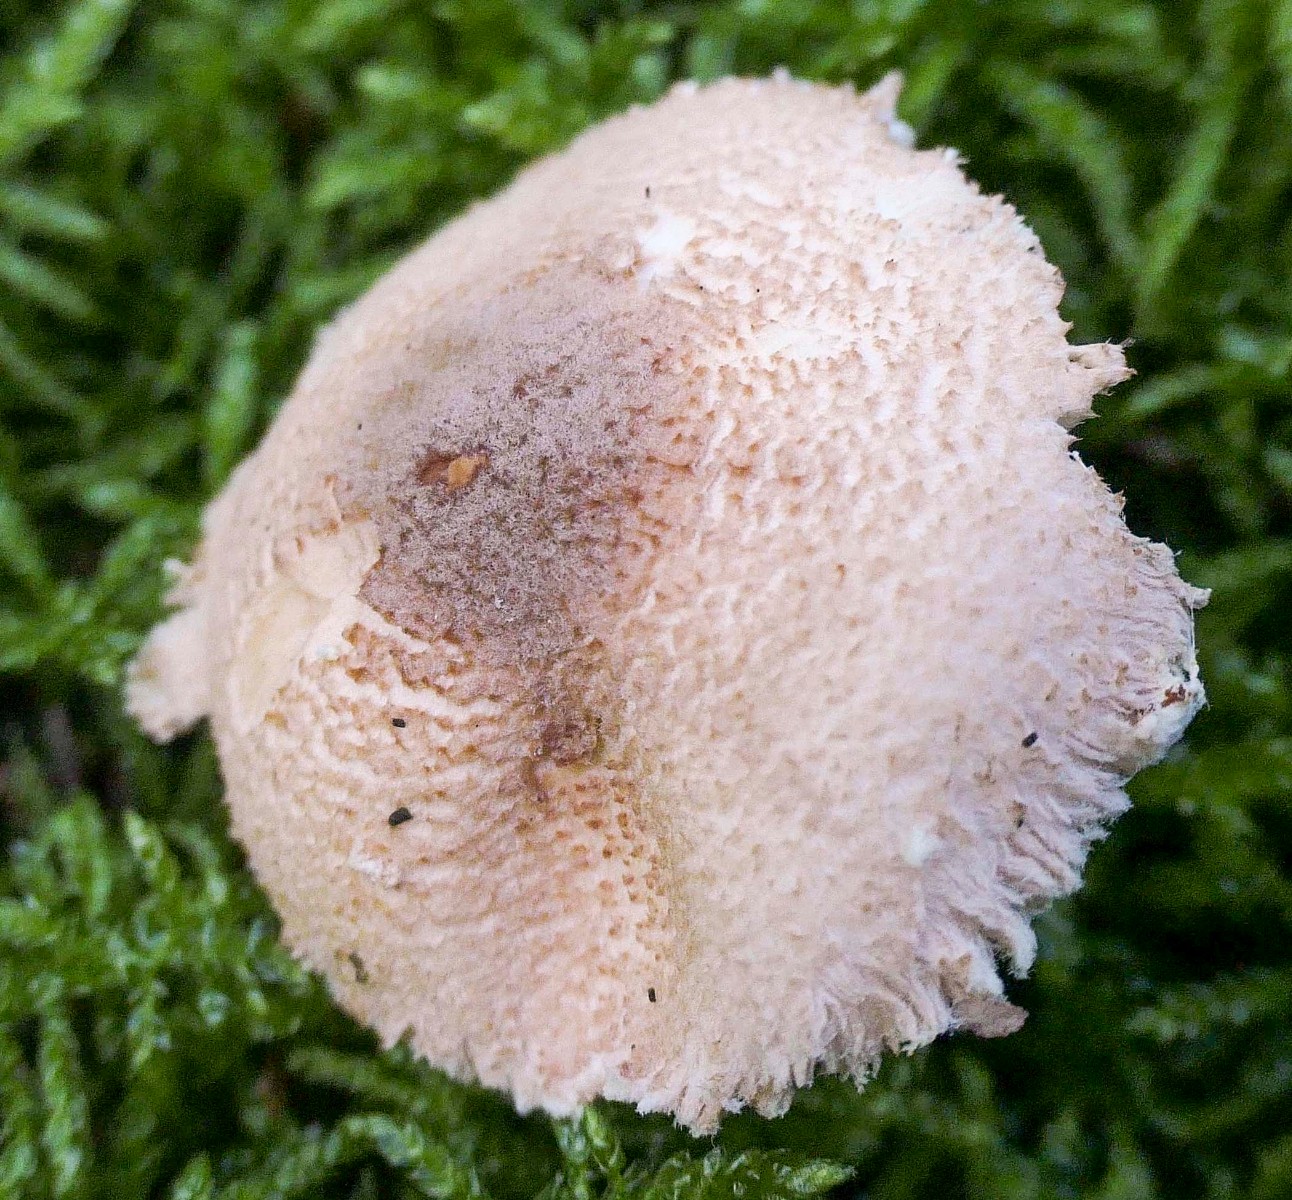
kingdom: Fungi
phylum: Basidiomycota
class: Agaricomycetes
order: Agaricales
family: Agaricaceae
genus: Lepiota
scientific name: Lepiota magnispora
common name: gulfnugget parasolhat
